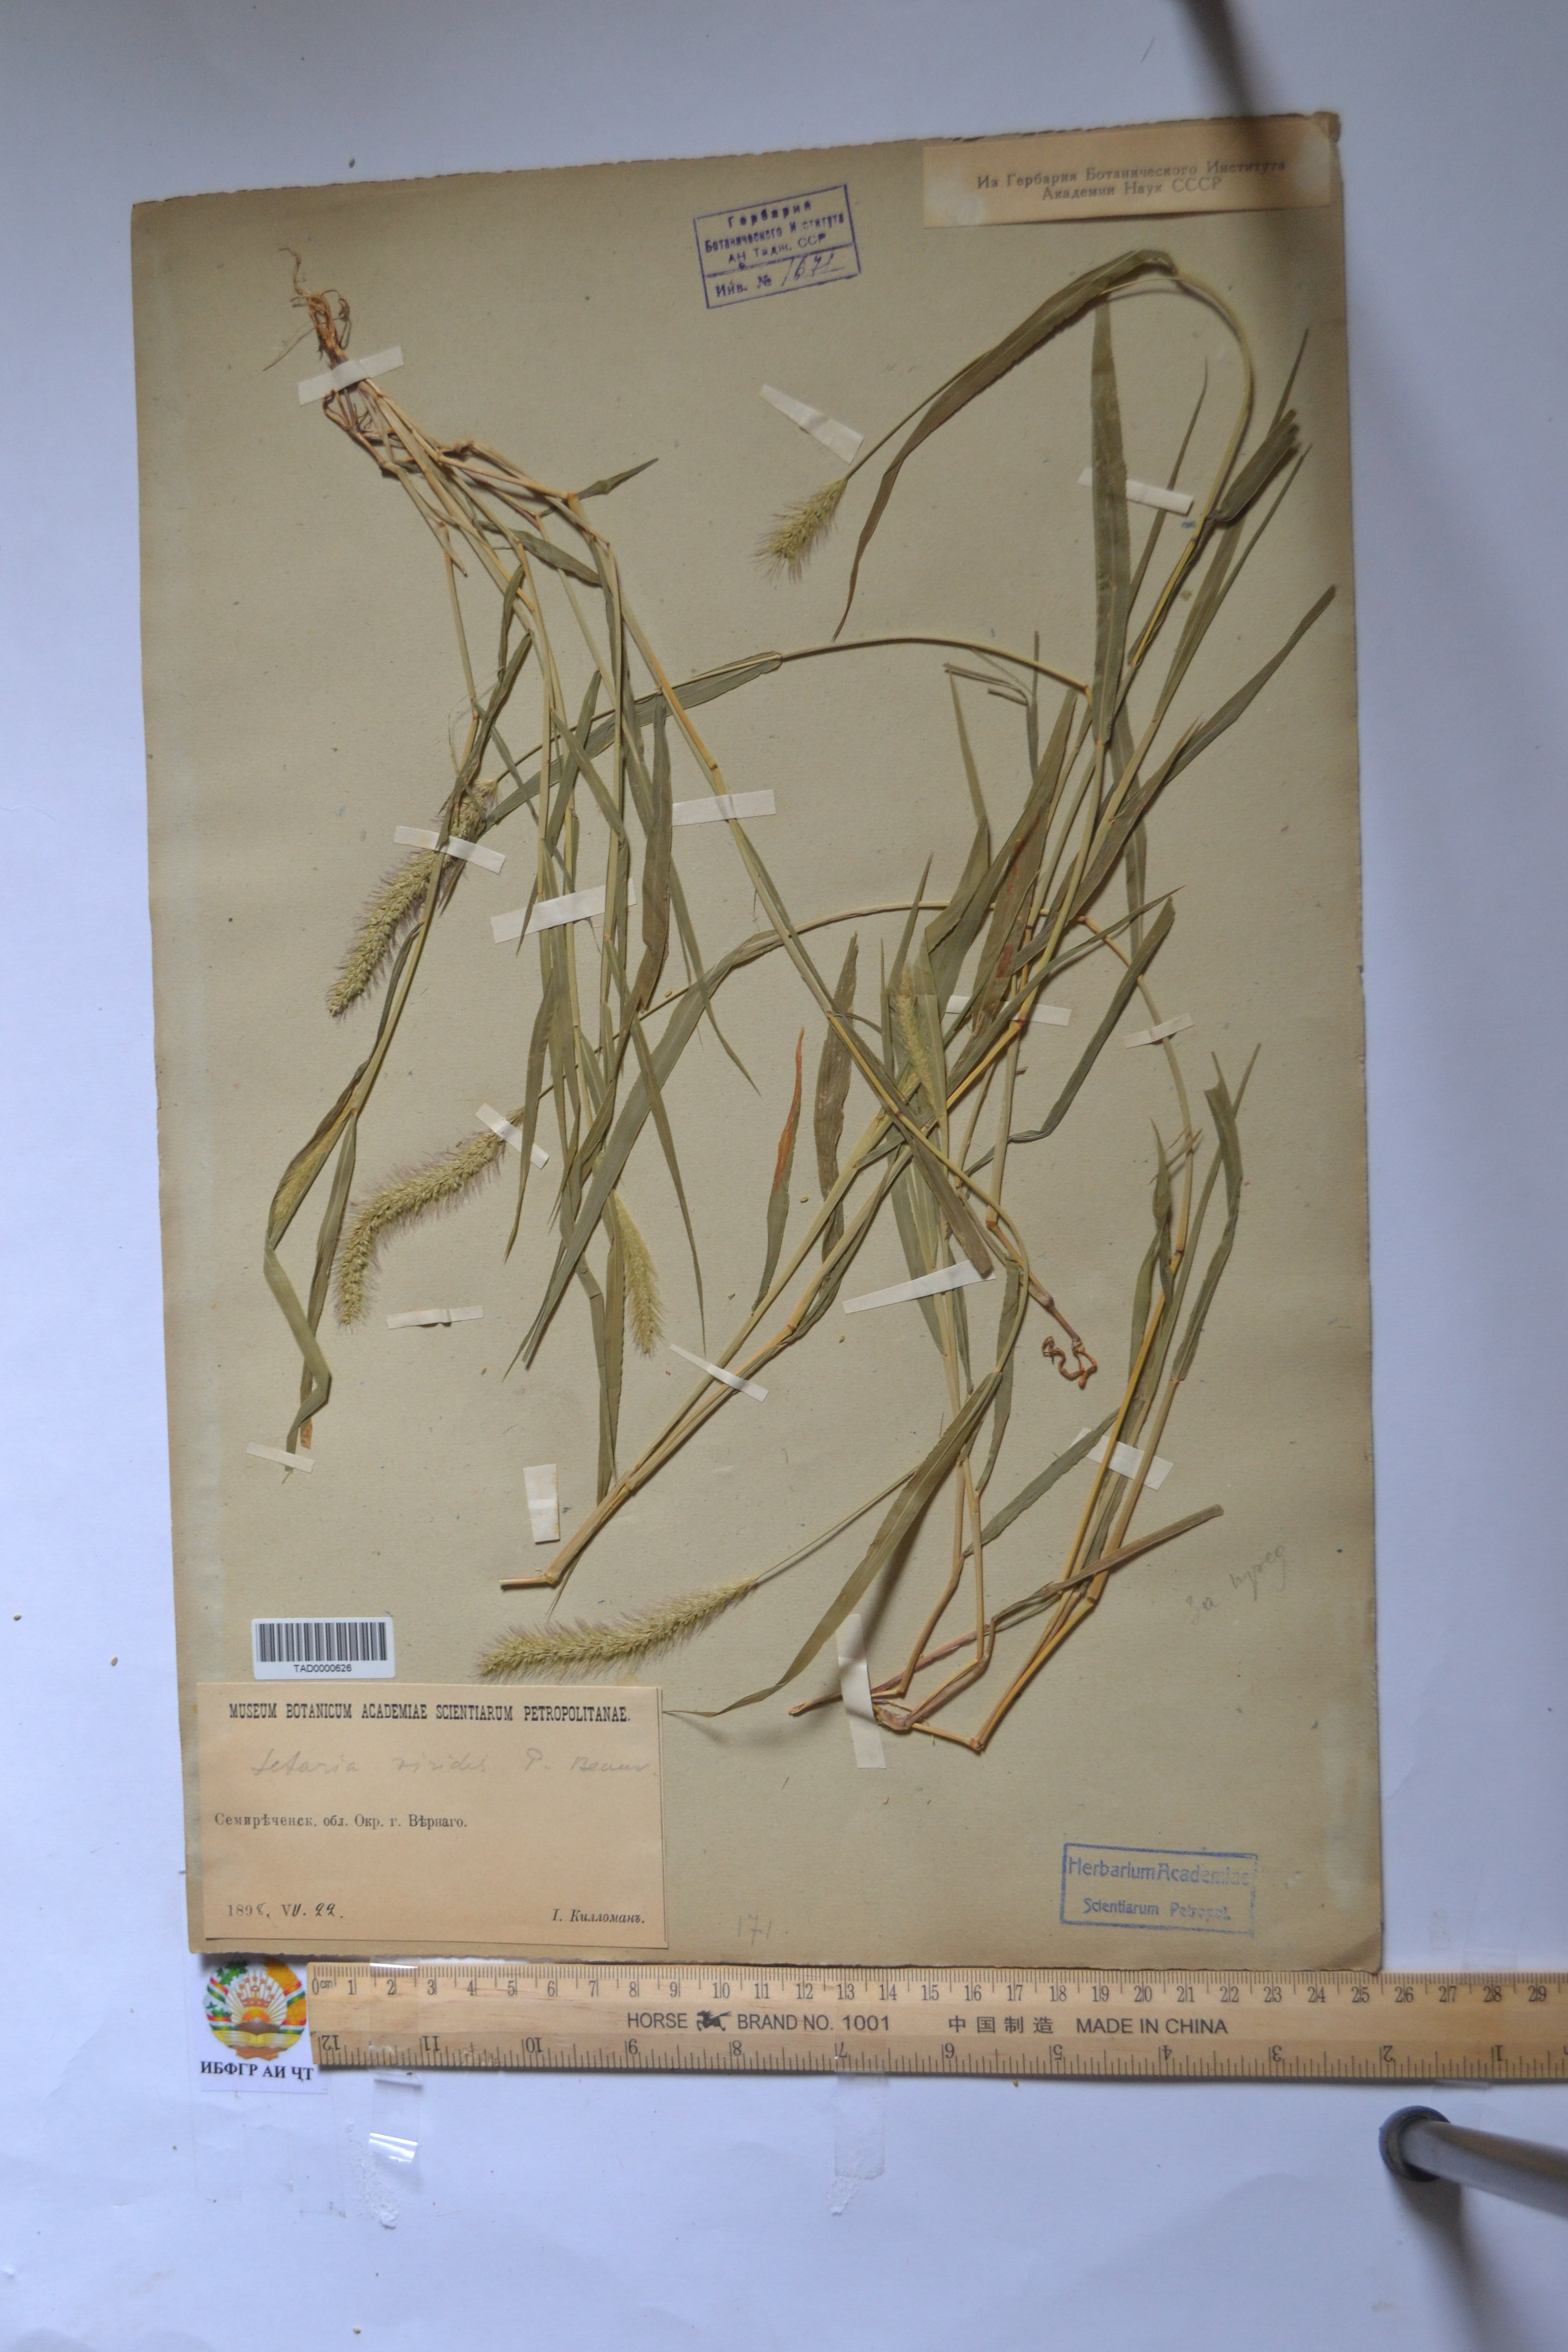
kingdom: Plantae
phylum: Tracheophyta
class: Liliopsida
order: Poales
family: Poaceae
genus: Setaria
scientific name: Setaria viridis
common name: Green bristlegrass
